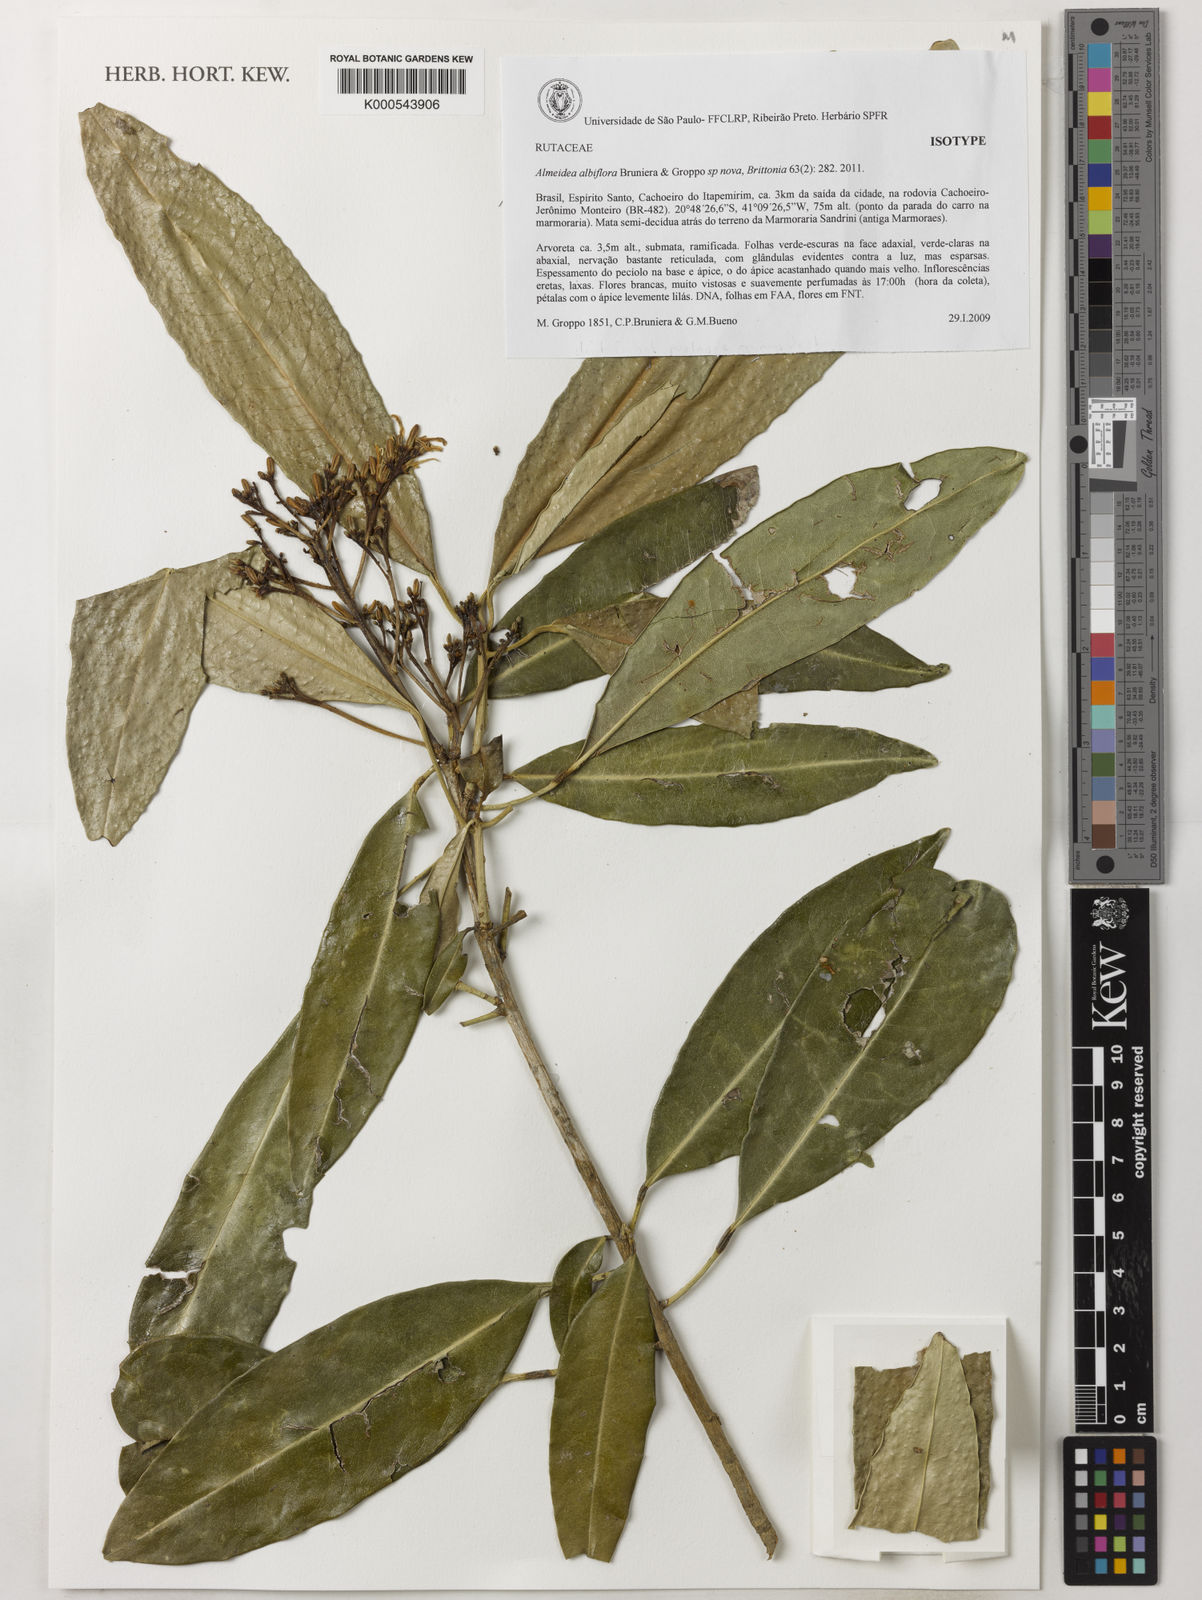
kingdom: Plantae
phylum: Tracheophyta
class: Magnoliopsida
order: Sapindales
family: Rutaceae
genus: Conchocarpus
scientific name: Conchocarpus albiflorus
